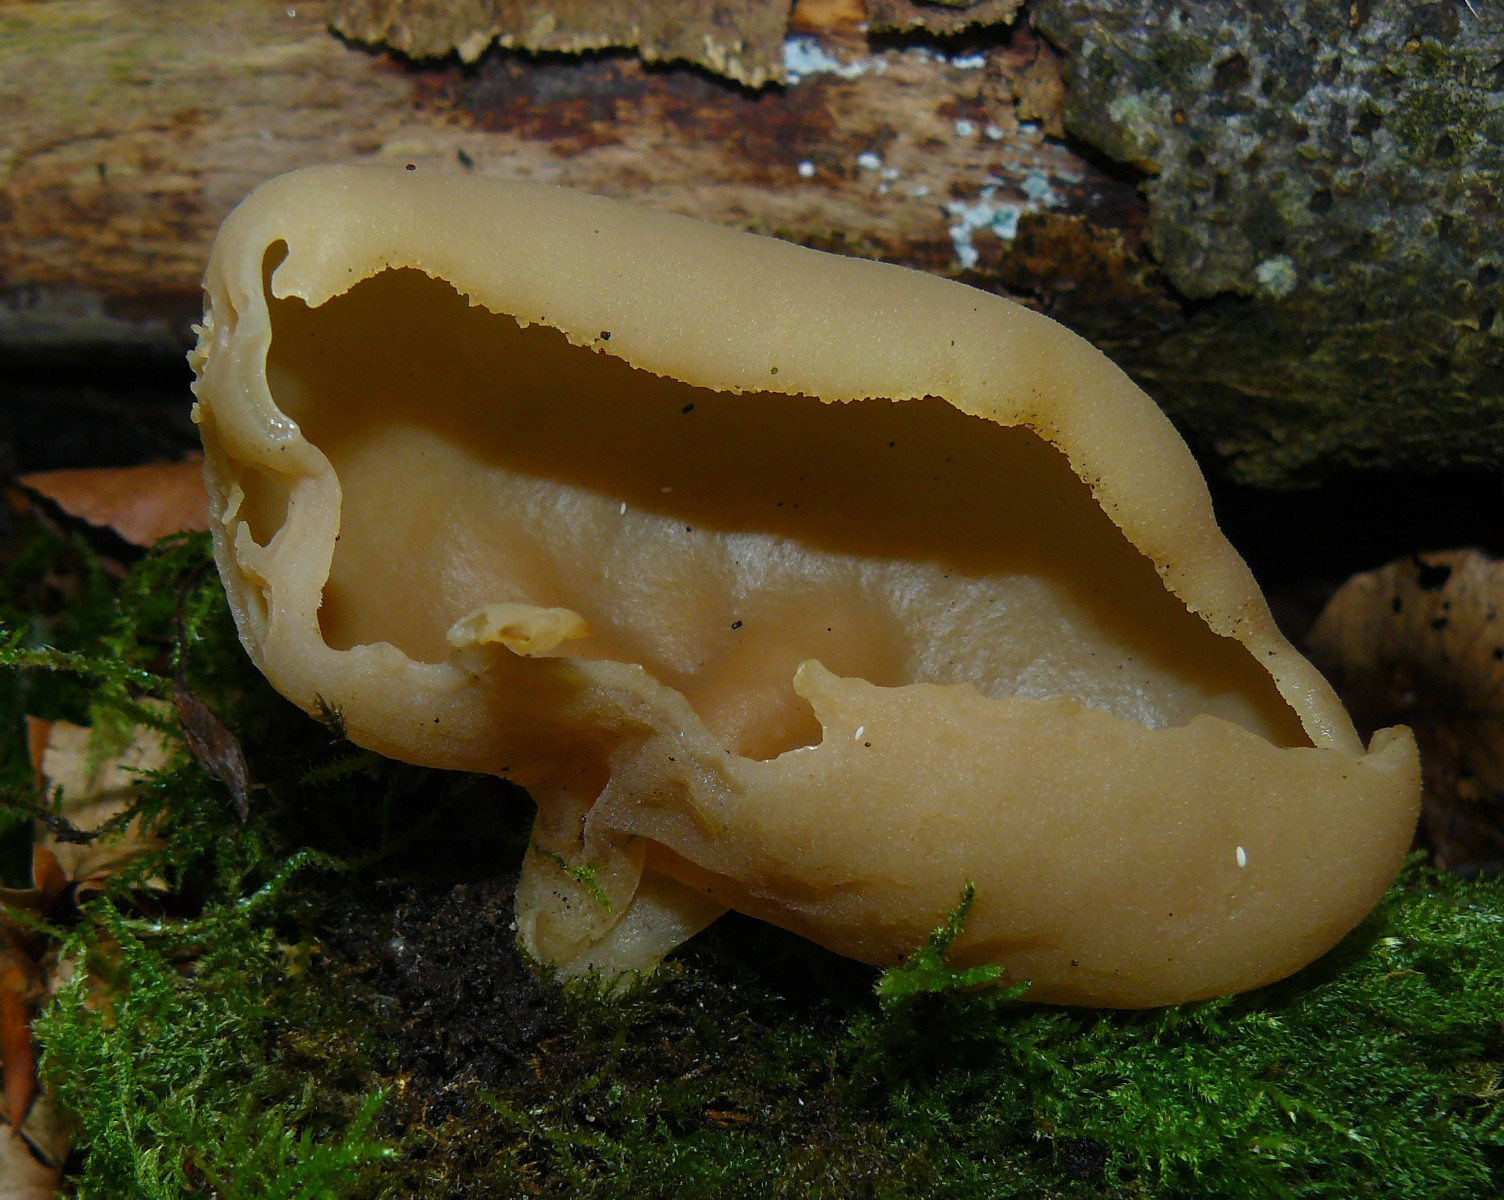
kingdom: Fungi
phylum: Ascomycota
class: Pezizomycetes
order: Pezizales
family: Pezizaceae
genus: Peziza
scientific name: Peziza varia
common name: Ved-bægersvamp
